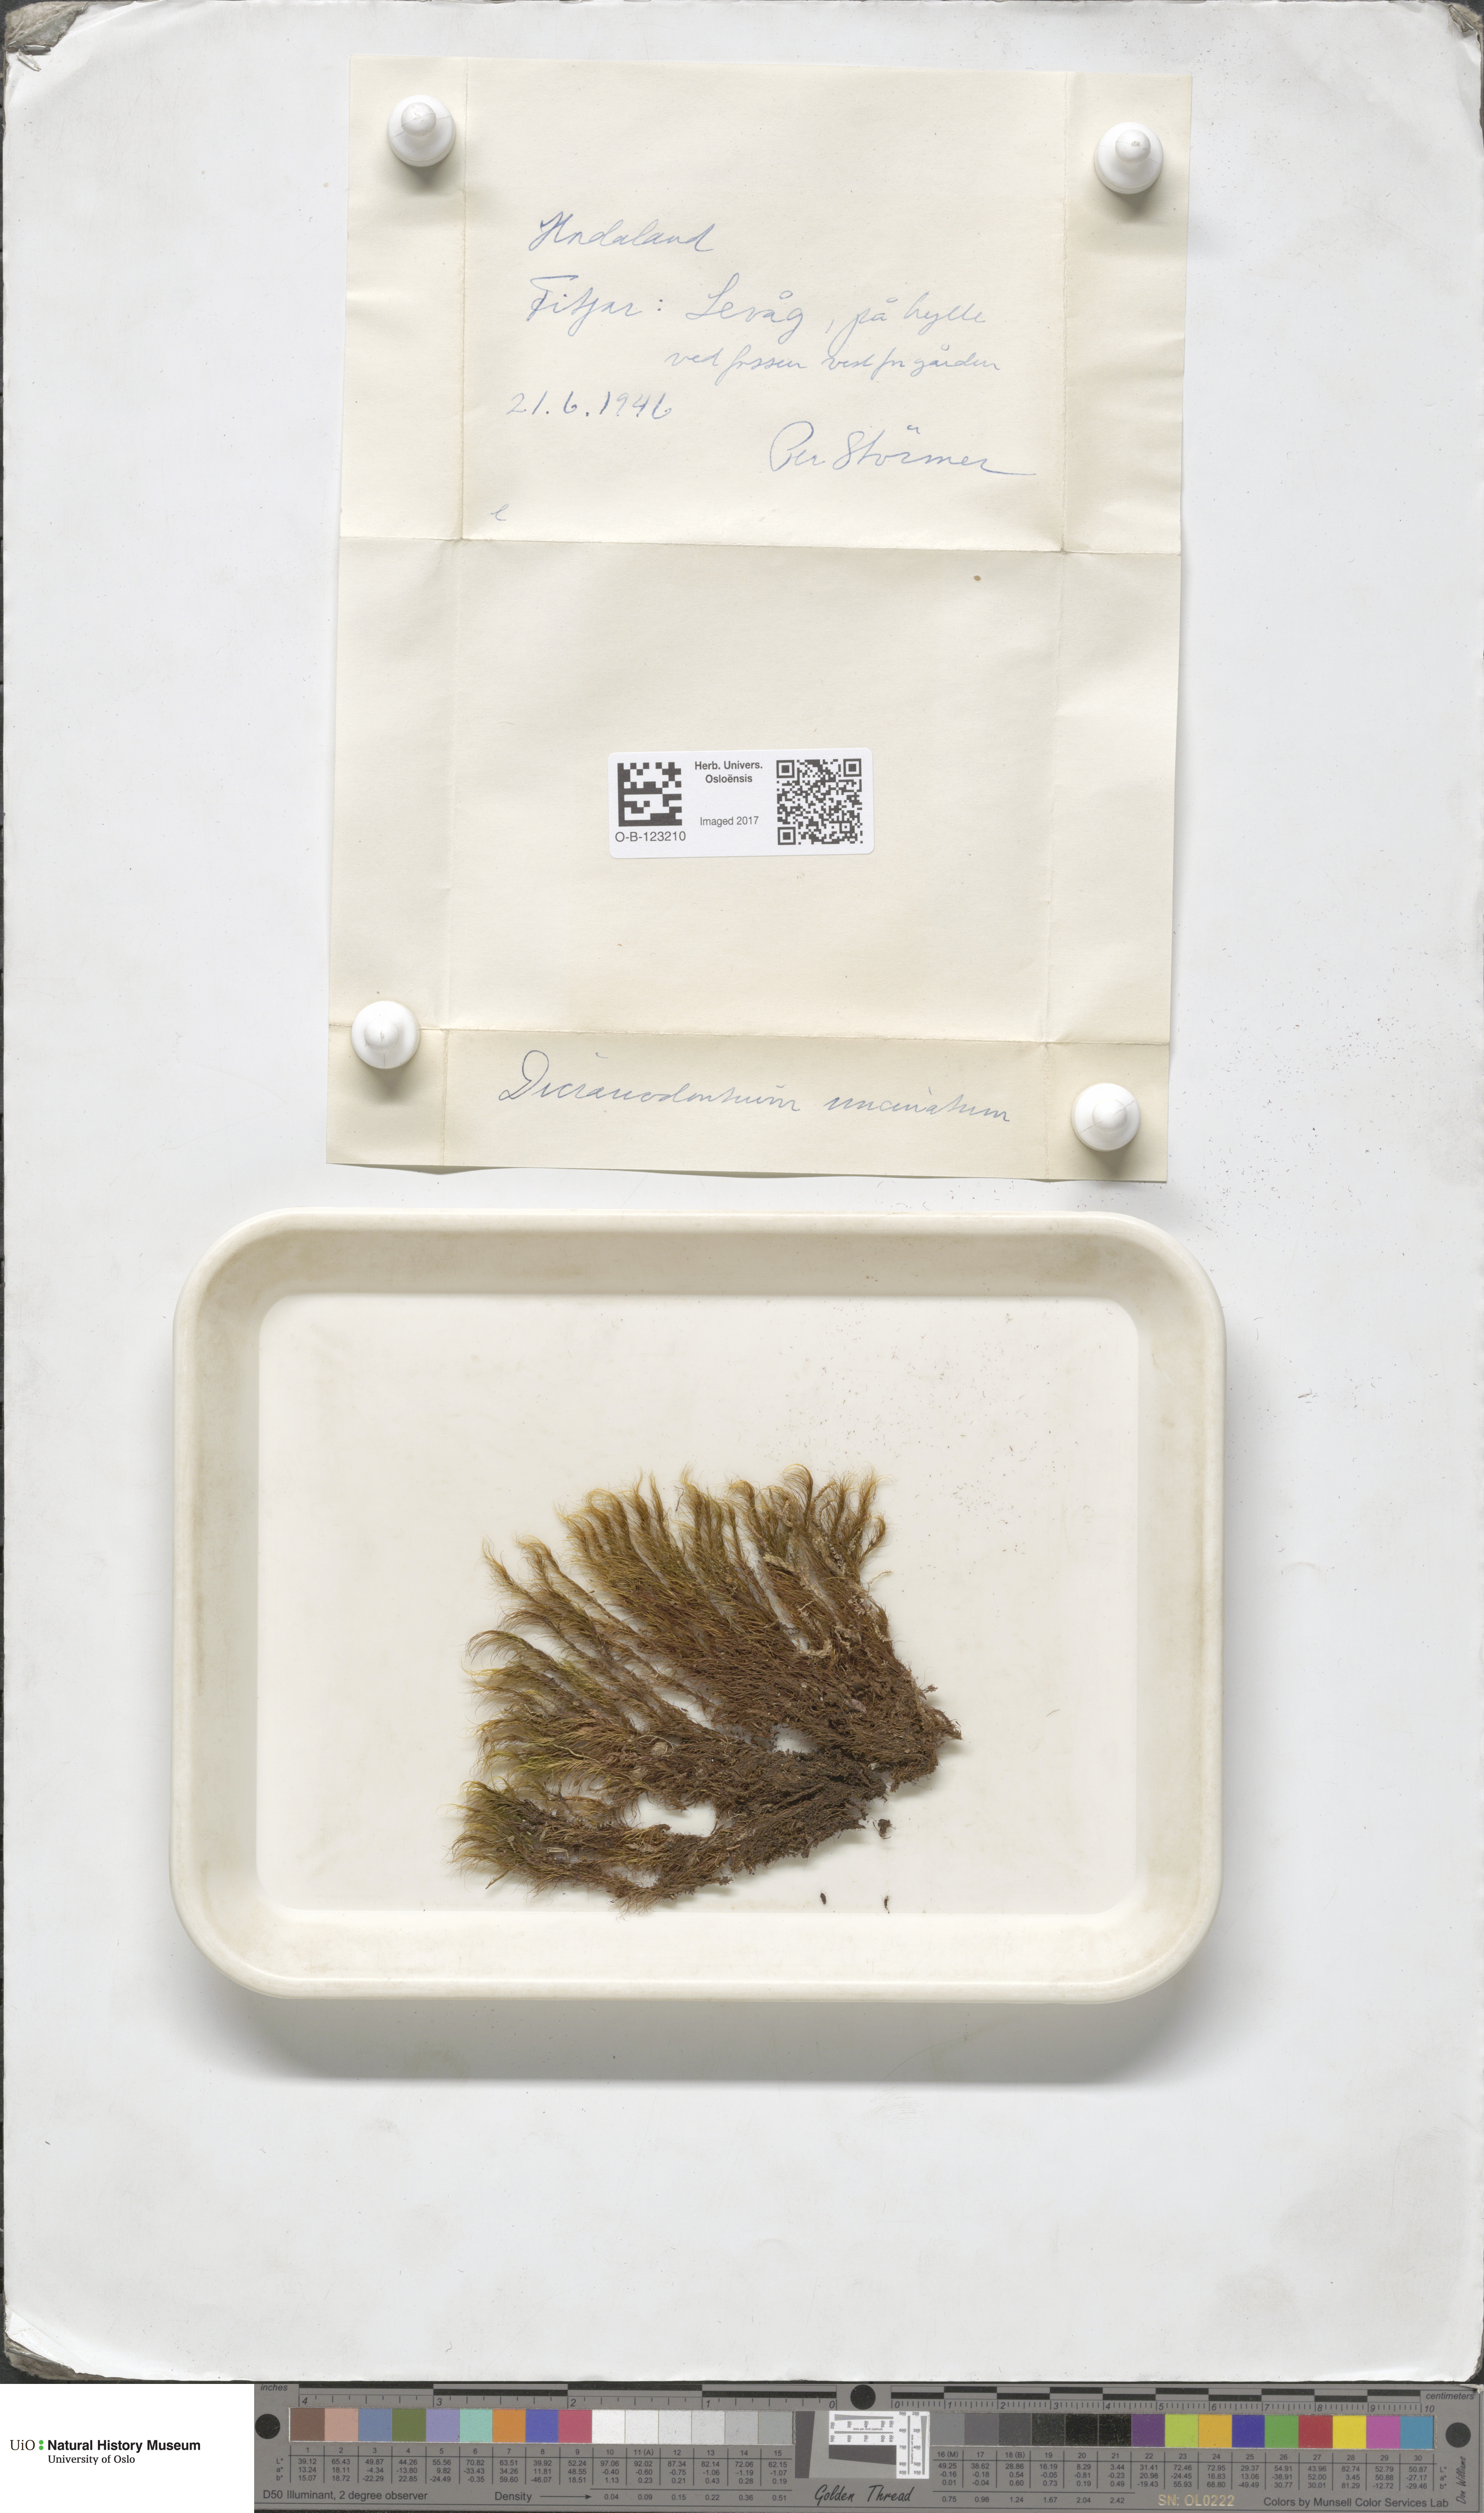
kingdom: Plantae
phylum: Bryophyta
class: Bryopsida
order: Dicranales
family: Leucobryaceae
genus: Dicranodontium
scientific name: Dicranodontium uncinatum
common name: Curve-leaved bow-moss
